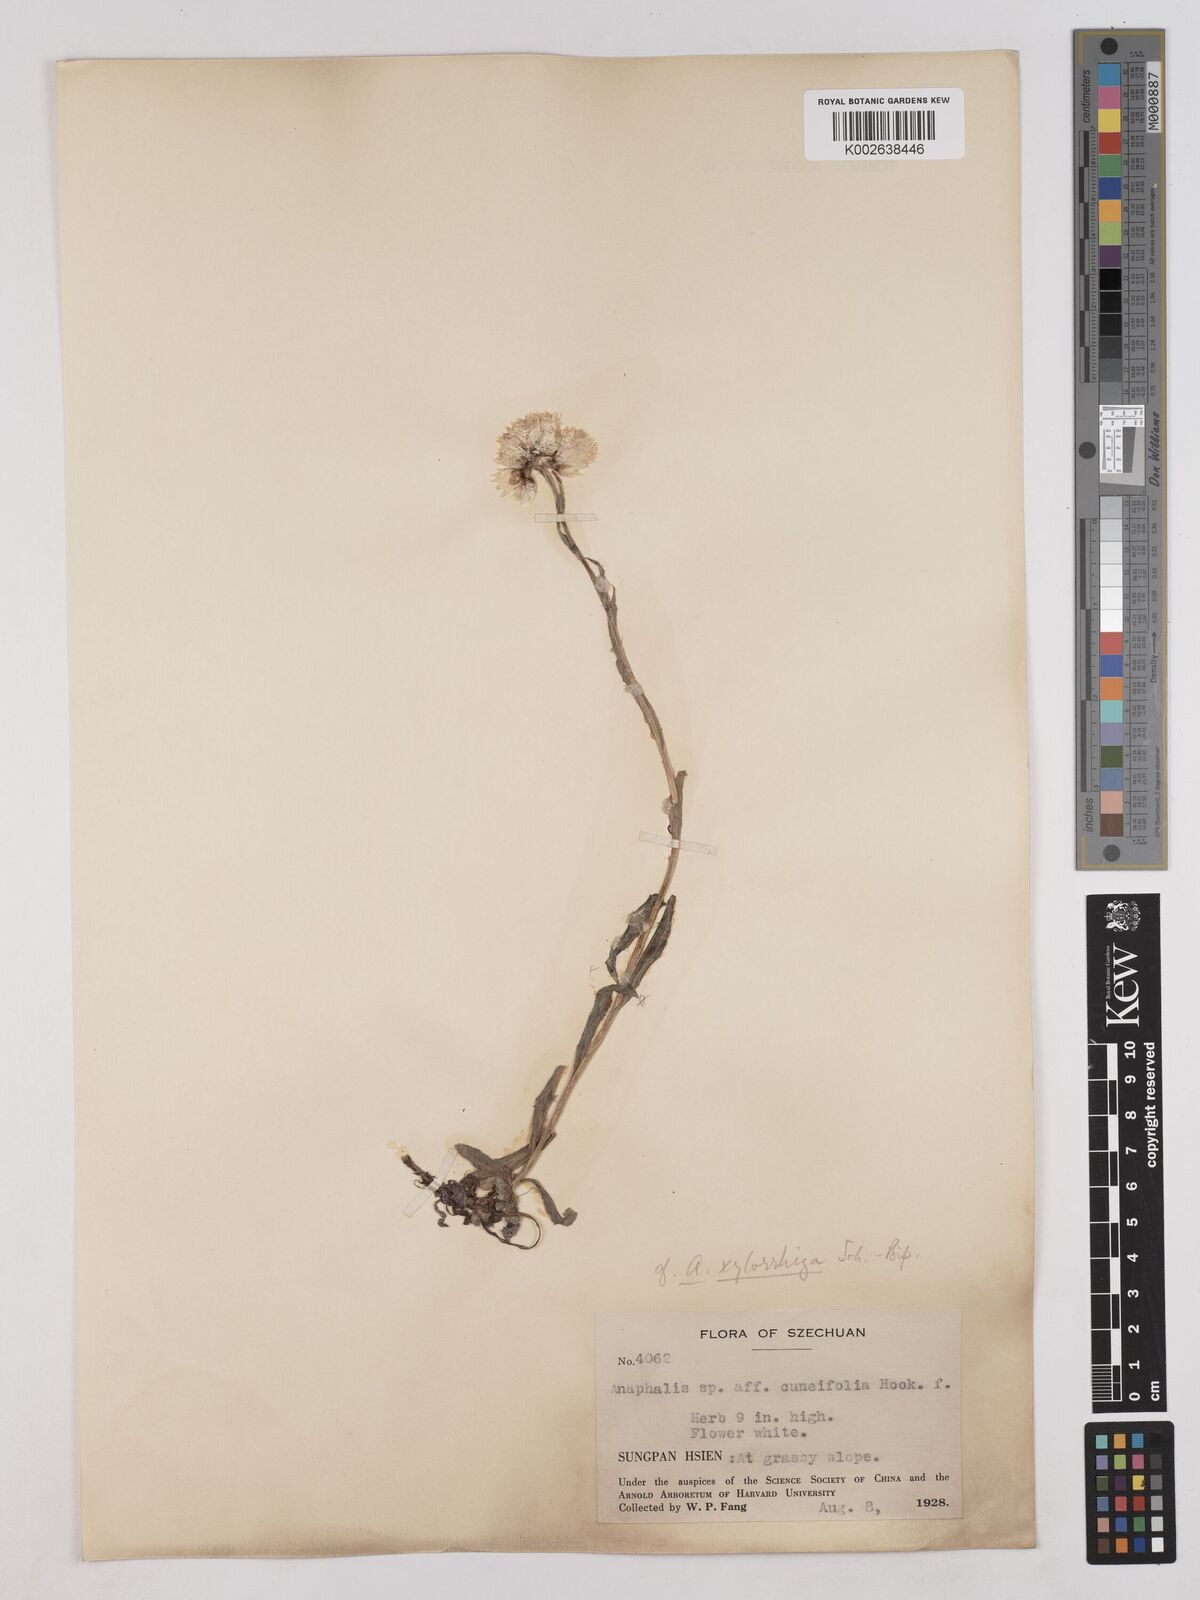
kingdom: Plantae
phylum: Tracheophyta
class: Magnoliopsida
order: Asterales
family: Asteraceae
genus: Anaphalis
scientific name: Anaphalis rhododactyla
